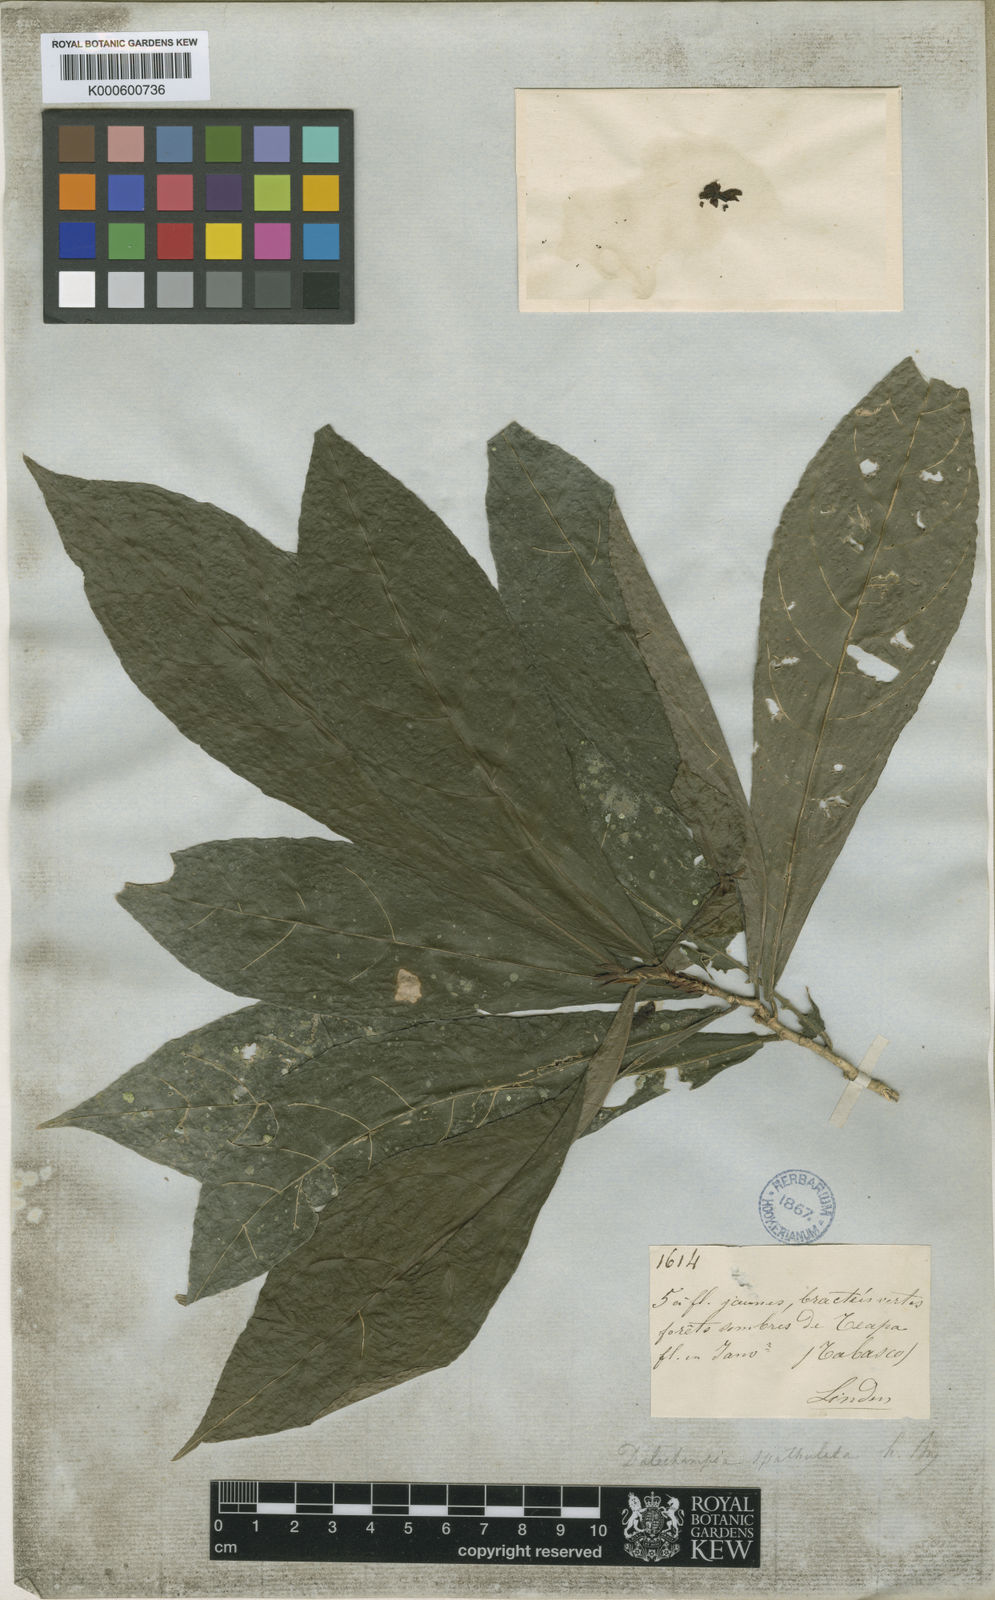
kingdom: Plantae
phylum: Tracheophyta
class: Magnoliopsida
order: Malpighiales
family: Euphorbiaceae
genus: Dalechampia
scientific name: Dalechampia spathulata
